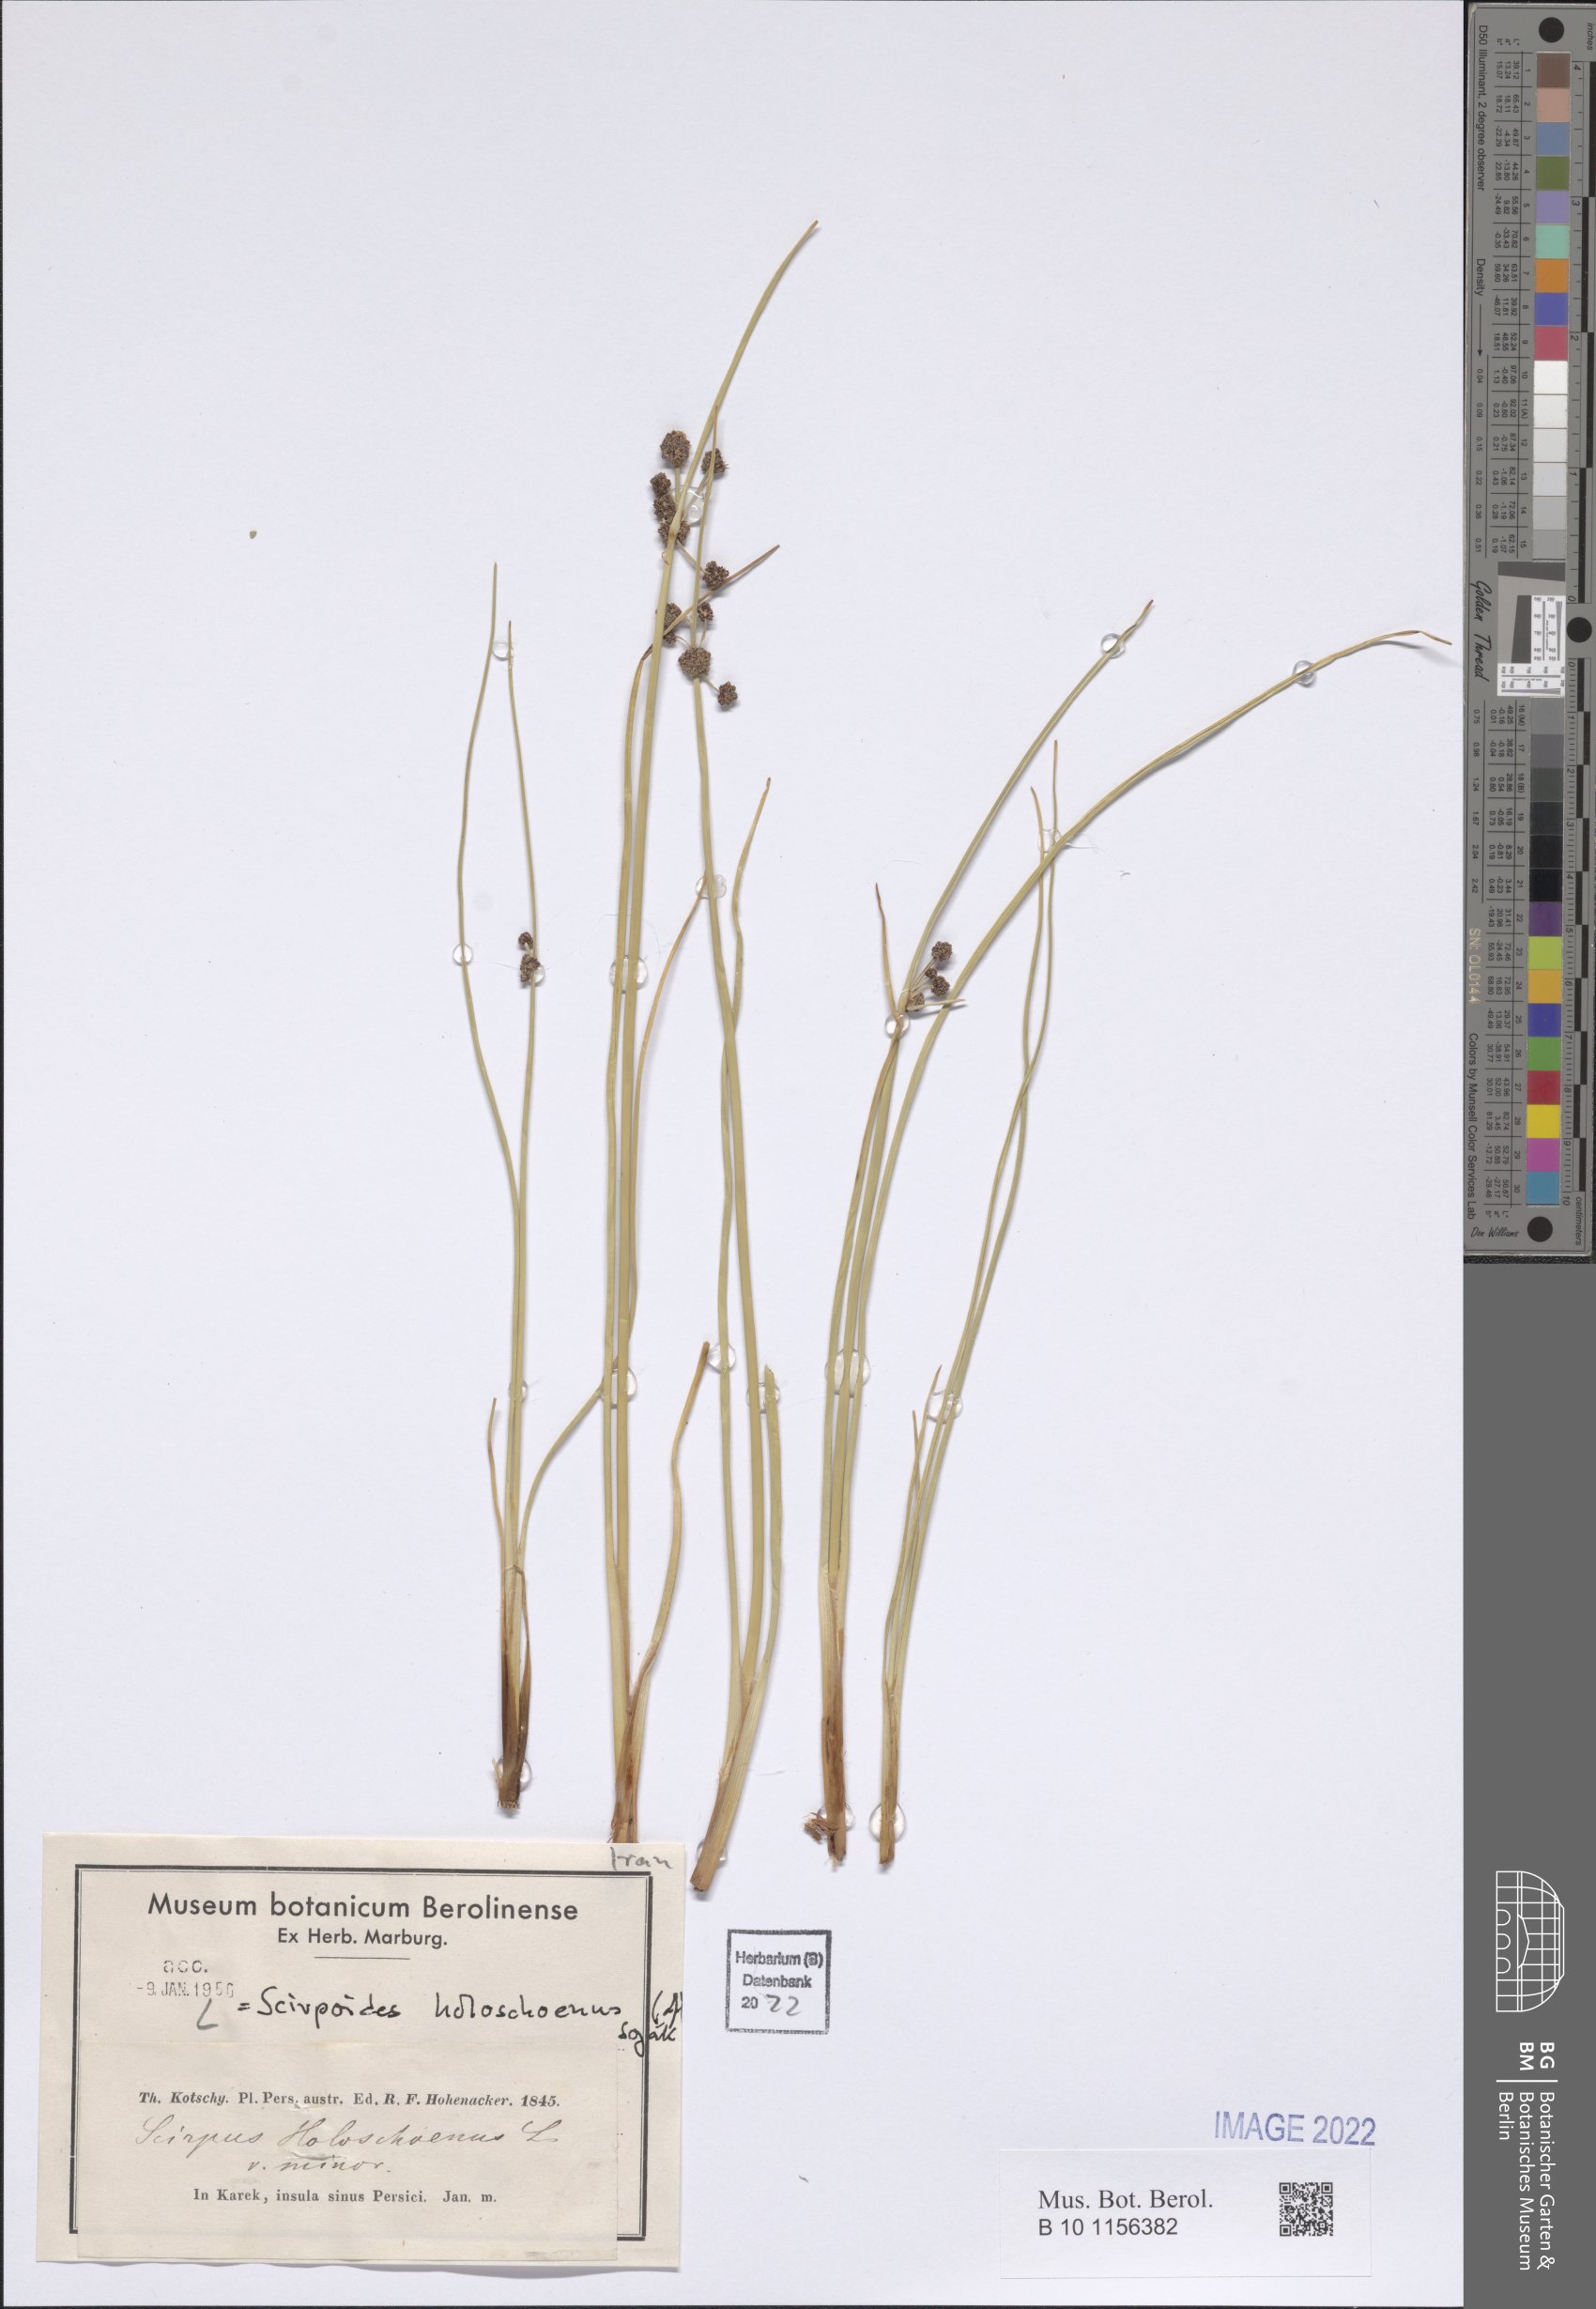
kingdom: Plantae
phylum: Tracheophyta
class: Liliopsida
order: Poales
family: Cyperaceae
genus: Scirpoides
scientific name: Scirpoides holoschoenus
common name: Round-headed club-rush
